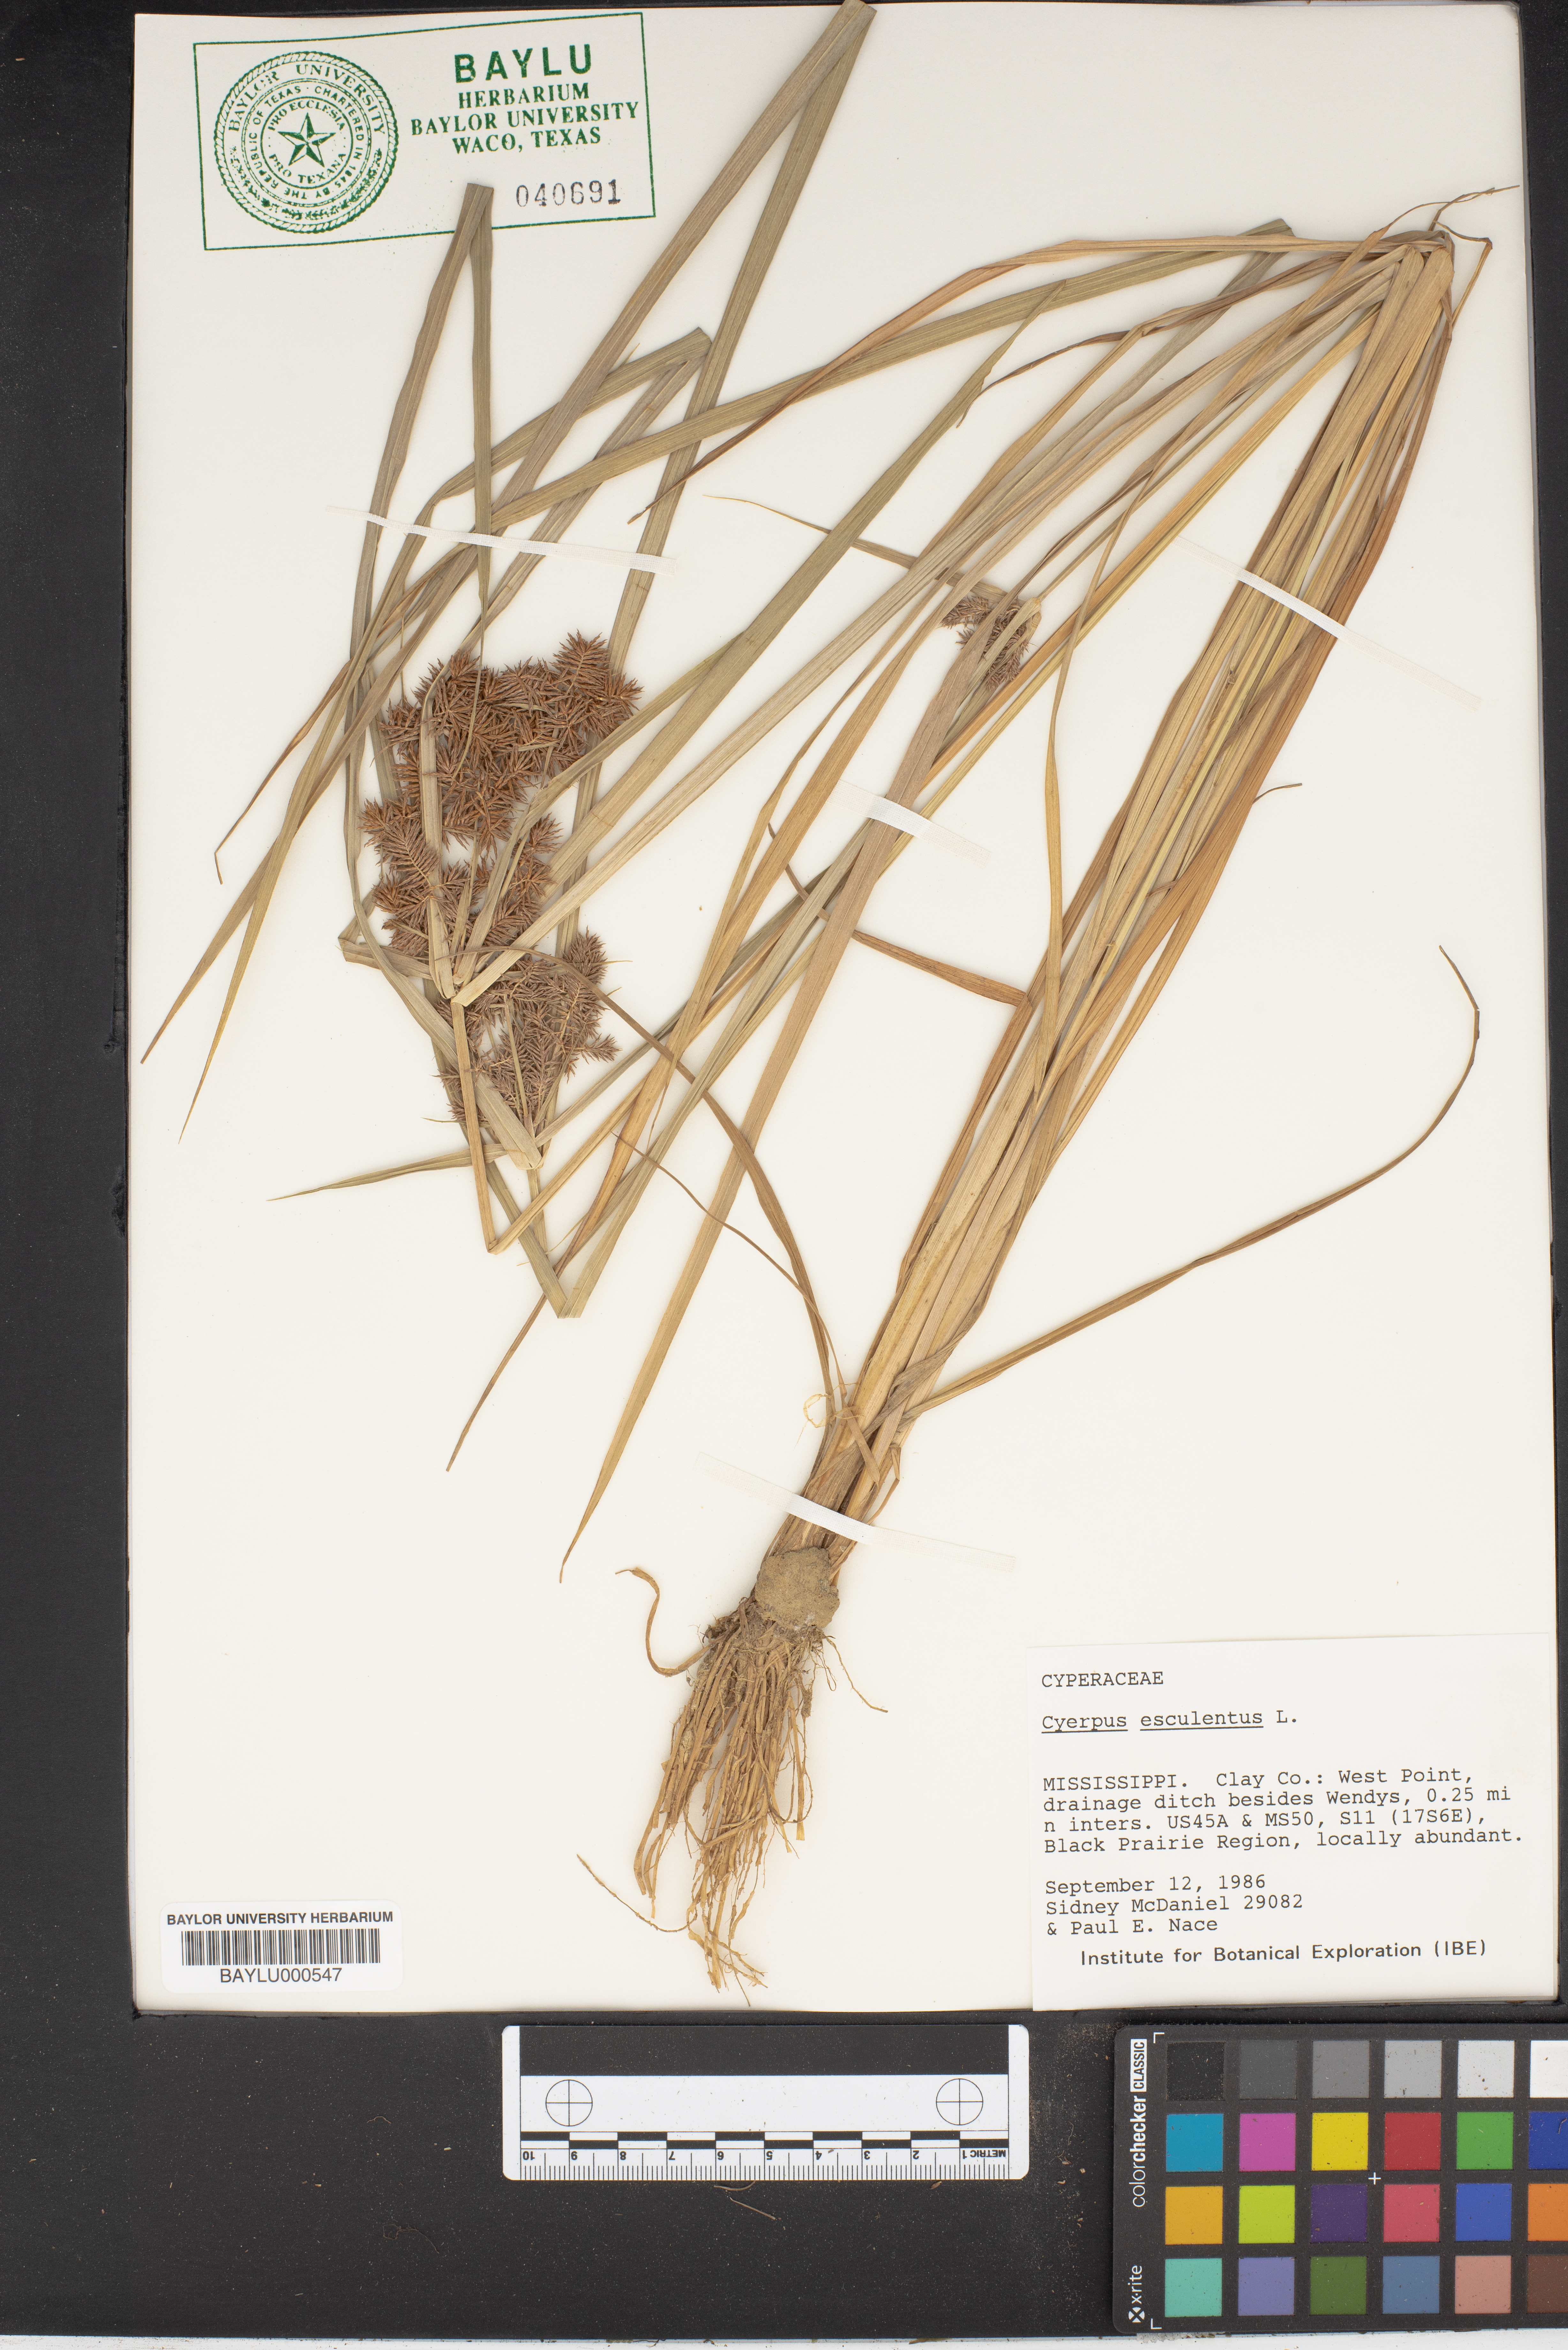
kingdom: Plantae
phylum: Tracheophyta
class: Liliopsida
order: Poales
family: Cyperaceae
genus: Cyperus
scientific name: Cyperus esculentus
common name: Yellow nutsedge
